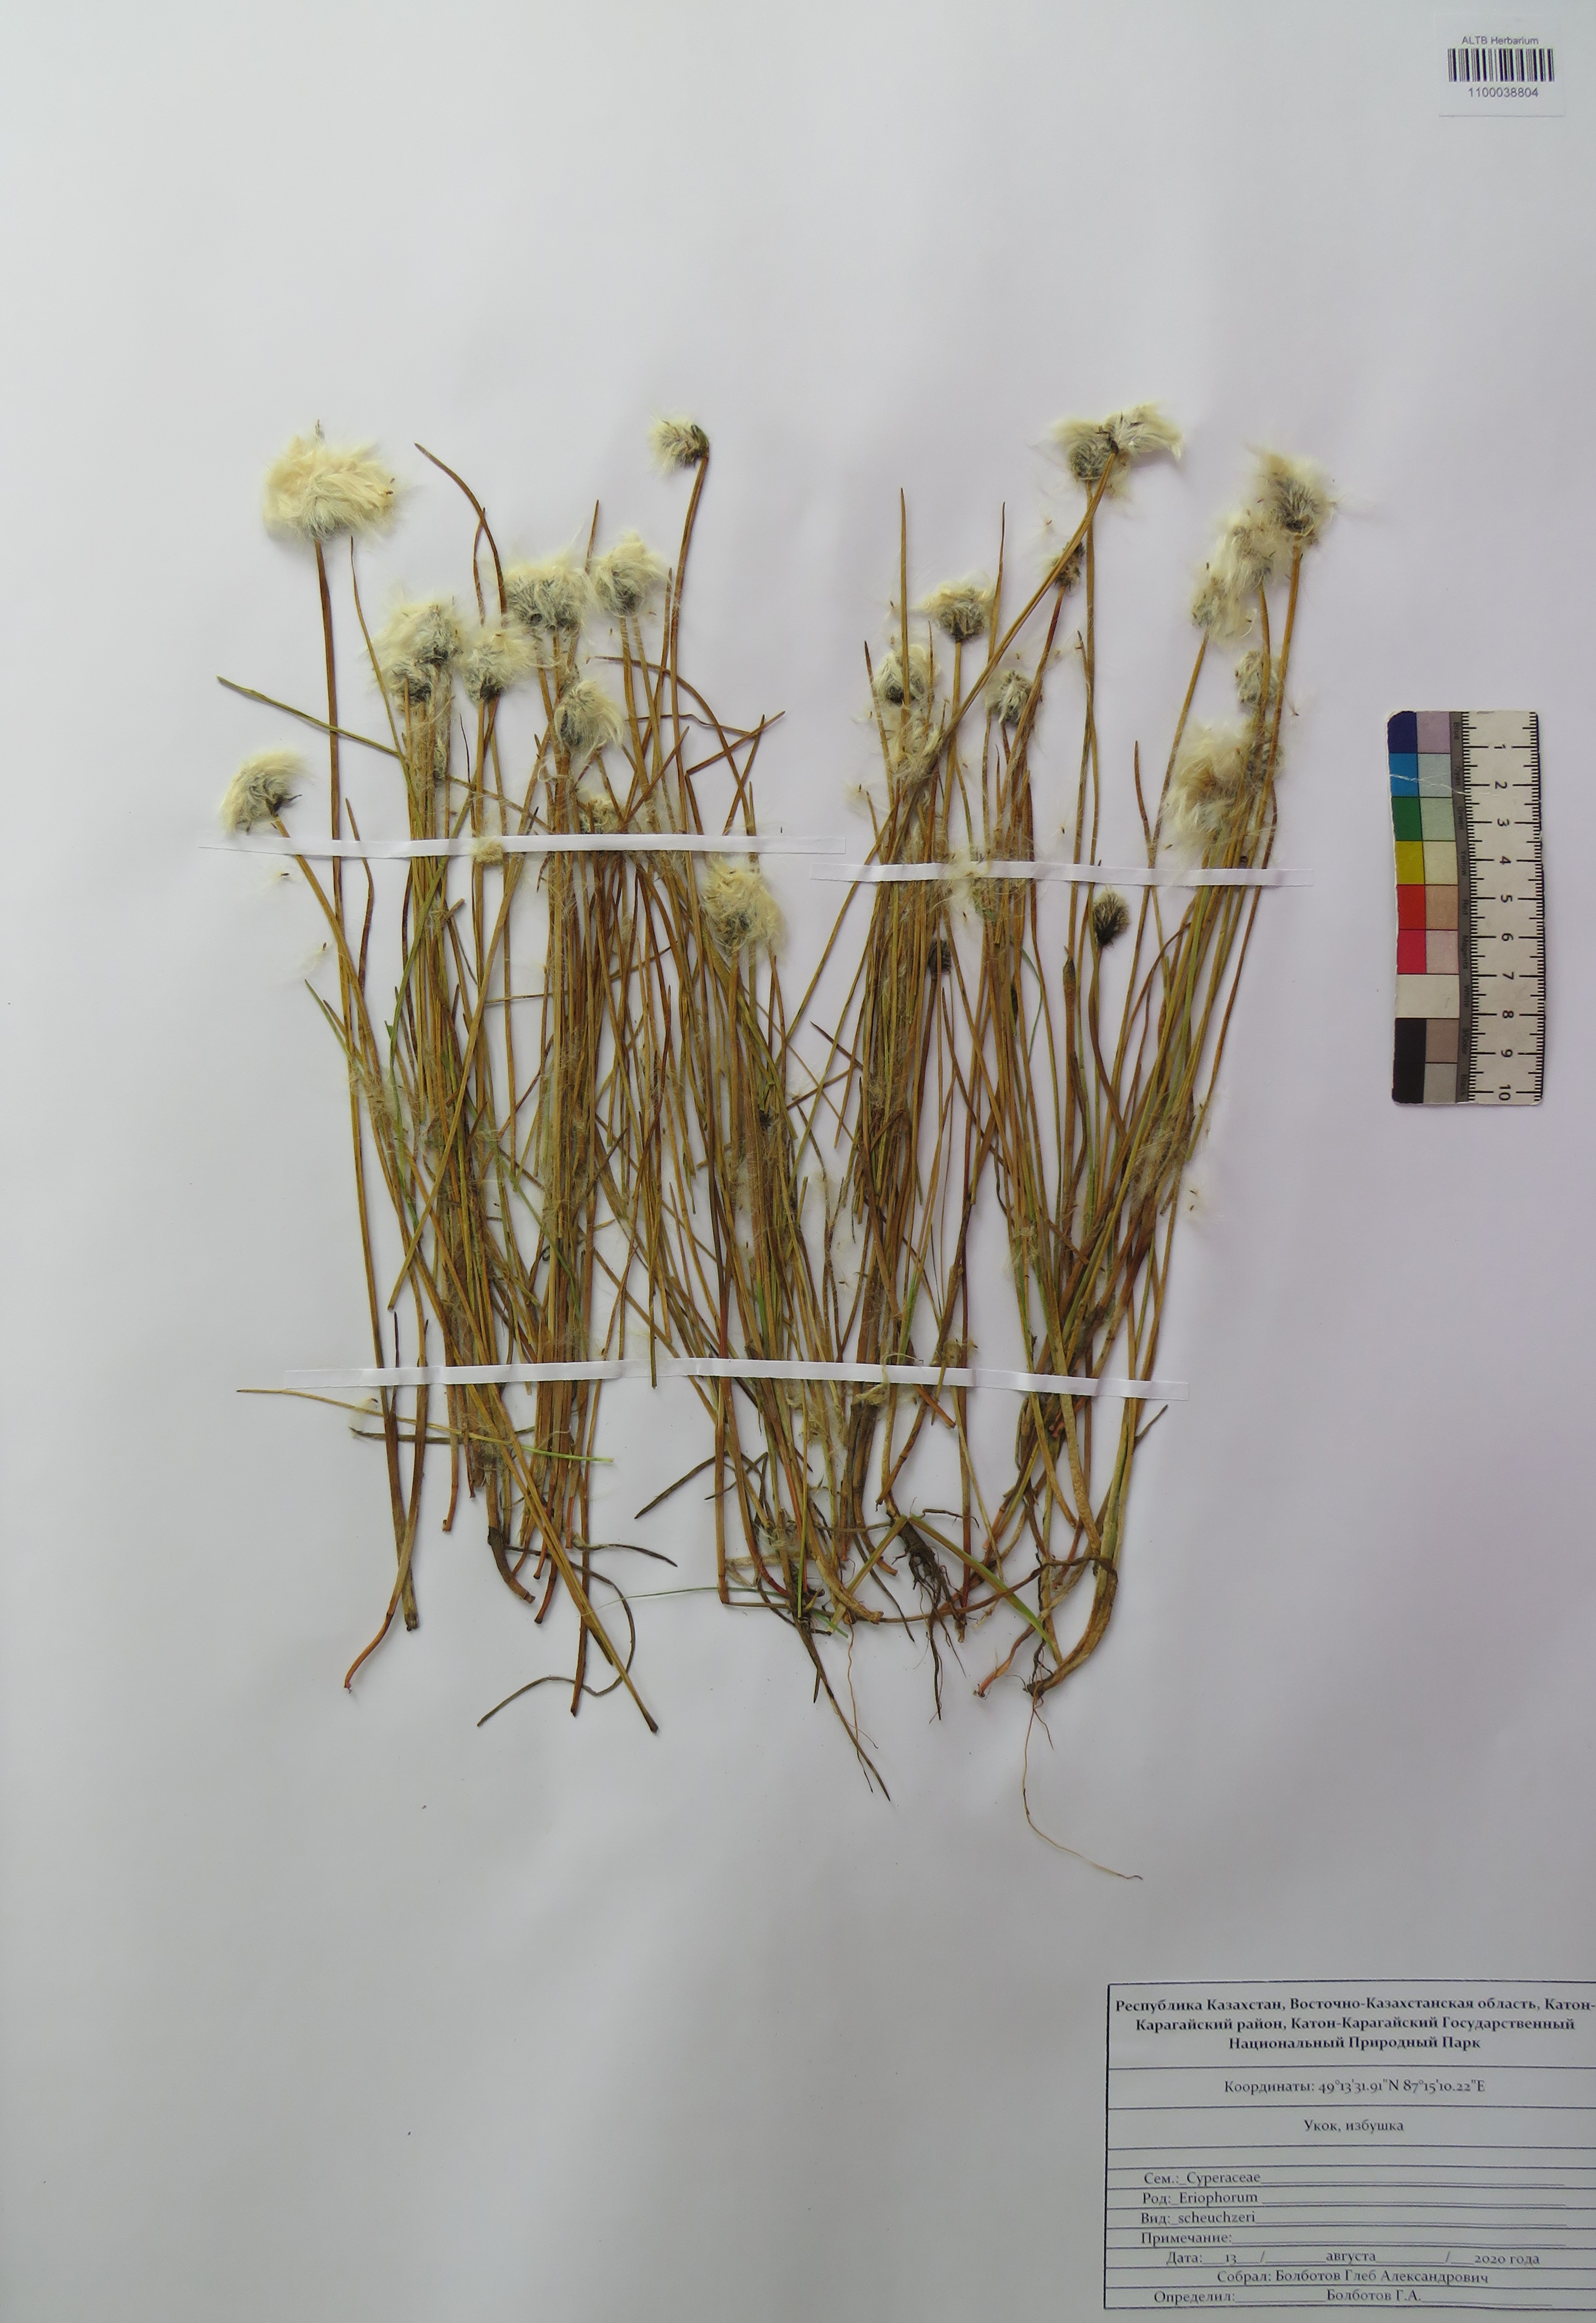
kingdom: Plantae
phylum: Tracheophyta
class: Liliopsida
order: Poales
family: Cyperaceae
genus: Eriophorum
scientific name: Eriophorum scheuchzeri
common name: Scheuchzer's cottongrass
